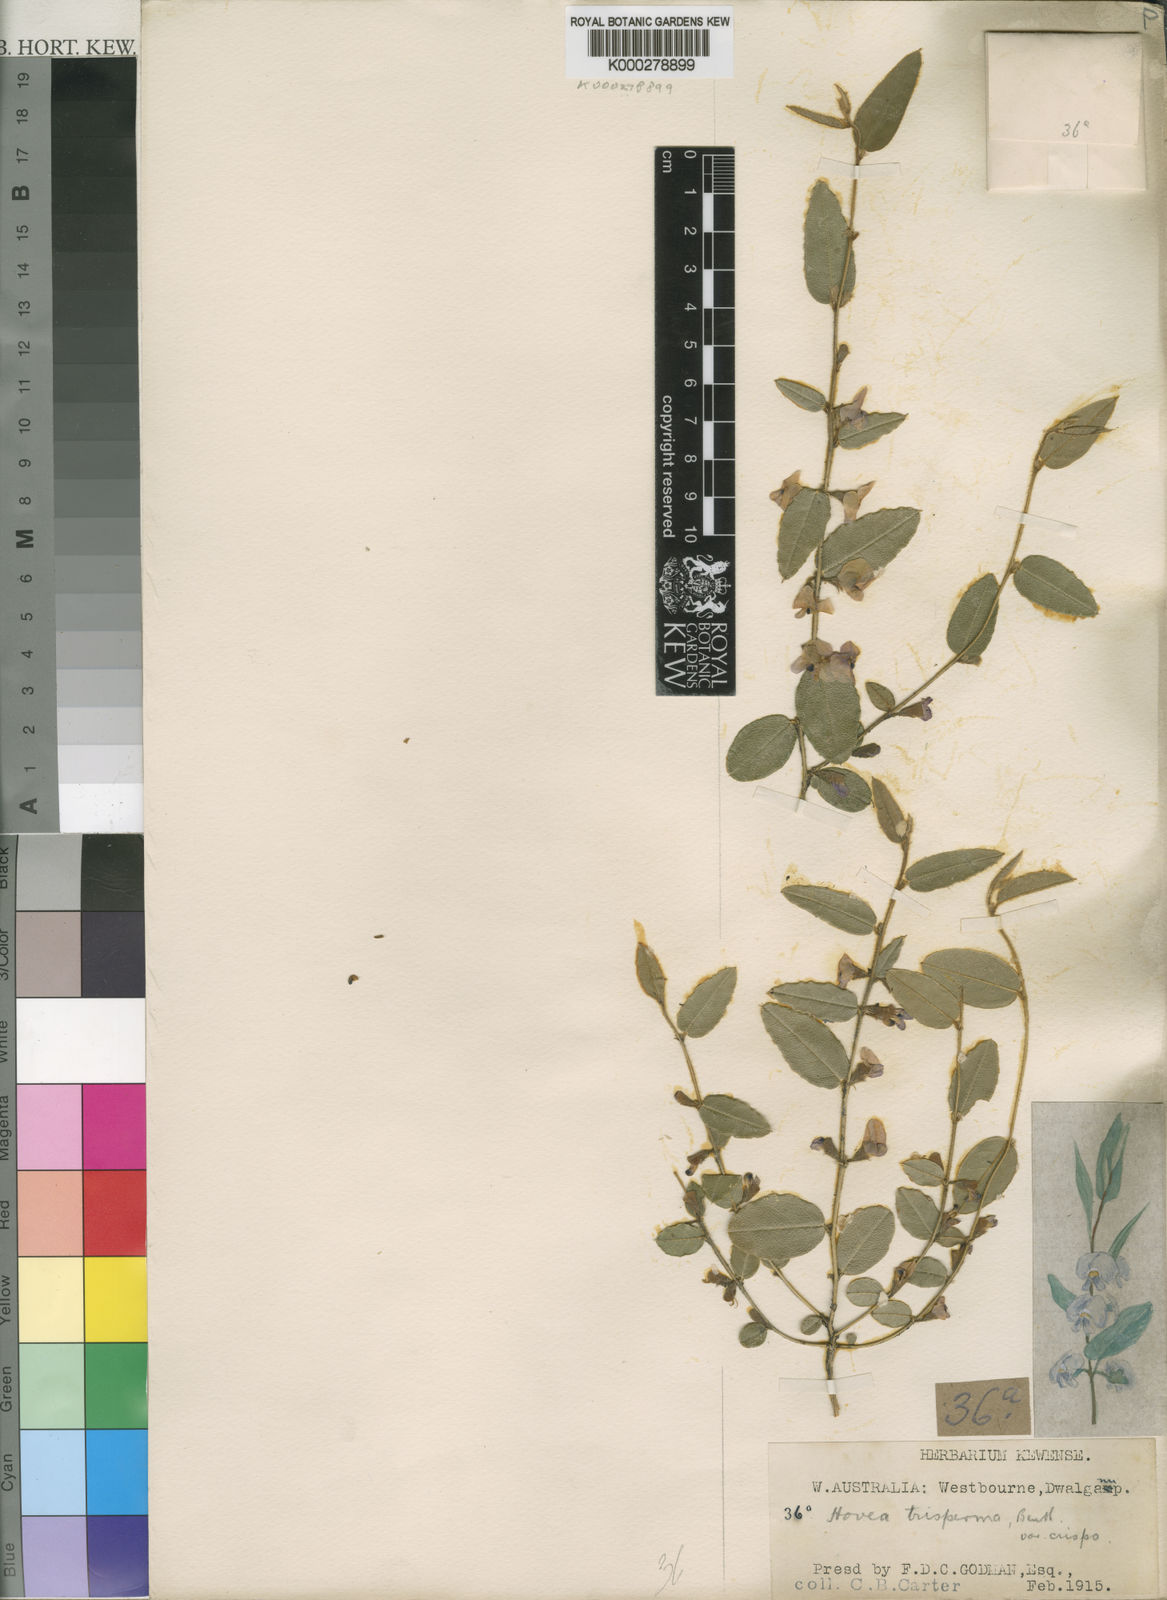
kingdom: Plantae
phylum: Tracheophyta
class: Magnoliopsida
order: Fabales
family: Fabaceae
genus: Hovea
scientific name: Hovea trisperma
